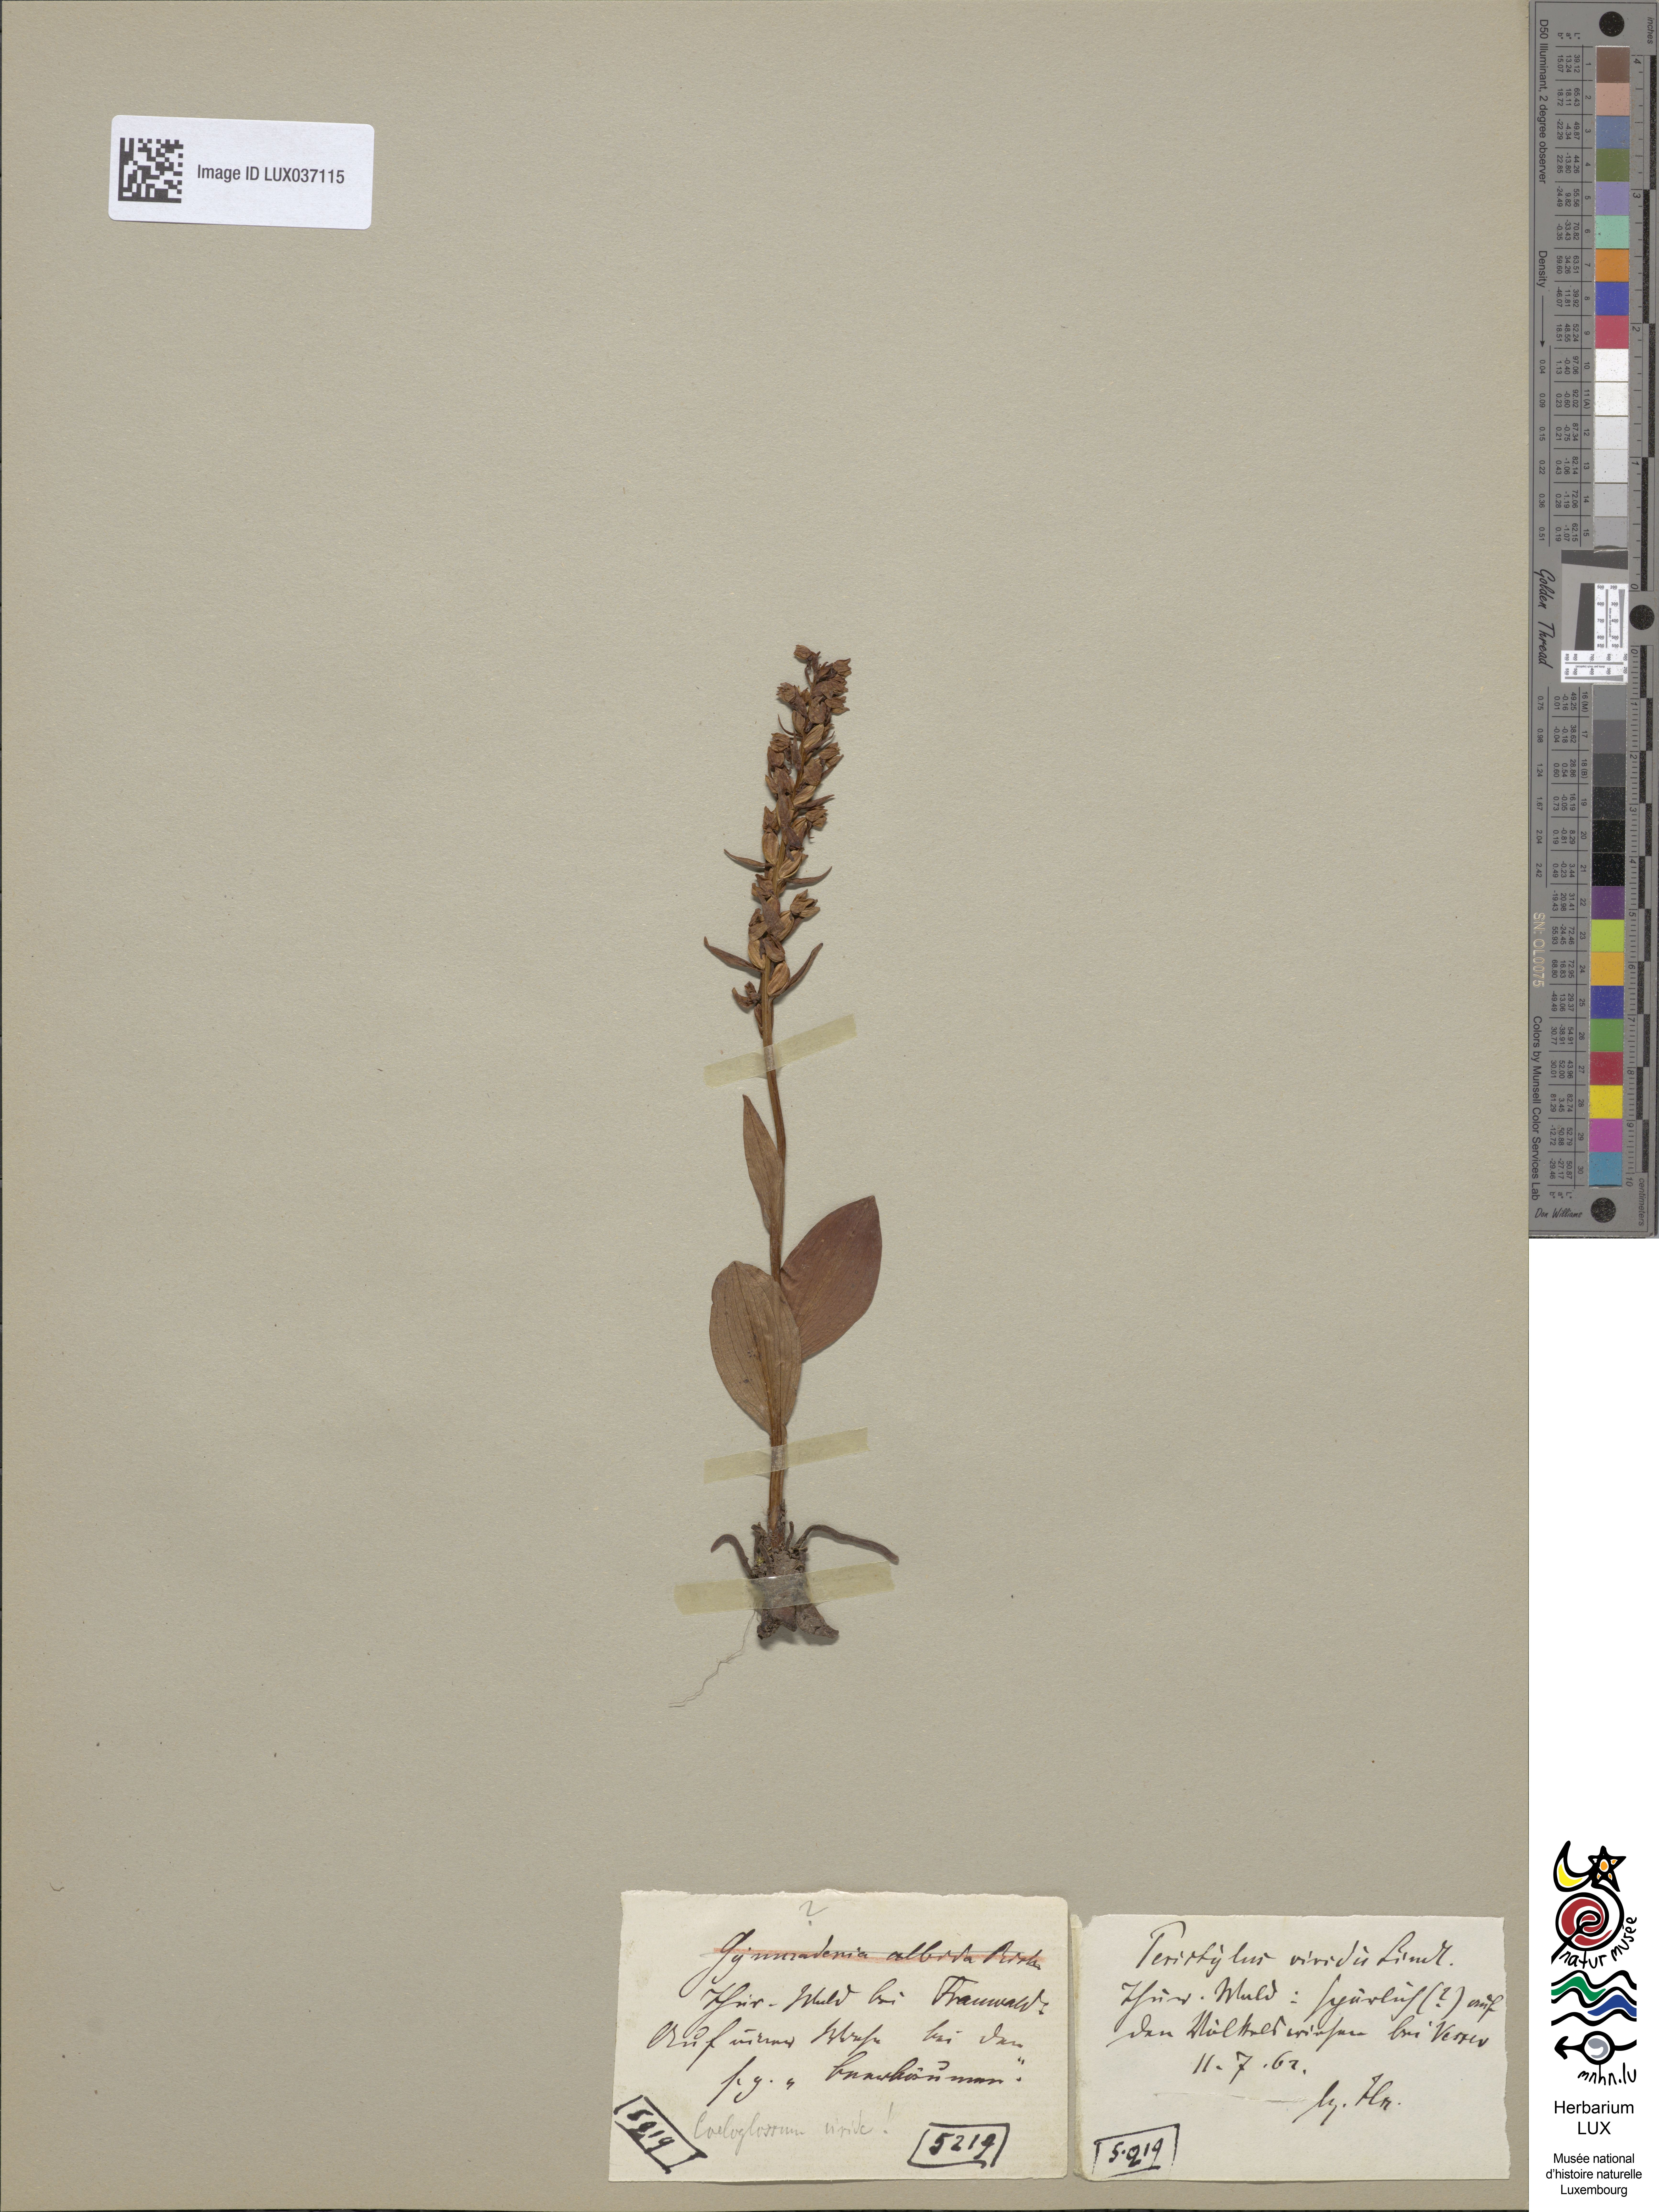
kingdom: Plantae
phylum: Tracheophyta
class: Liliopsida
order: Asparagales
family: Orchidaceae
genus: Dactylorhiza
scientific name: Dactylorhiza viridis
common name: Longbract frog orchid
